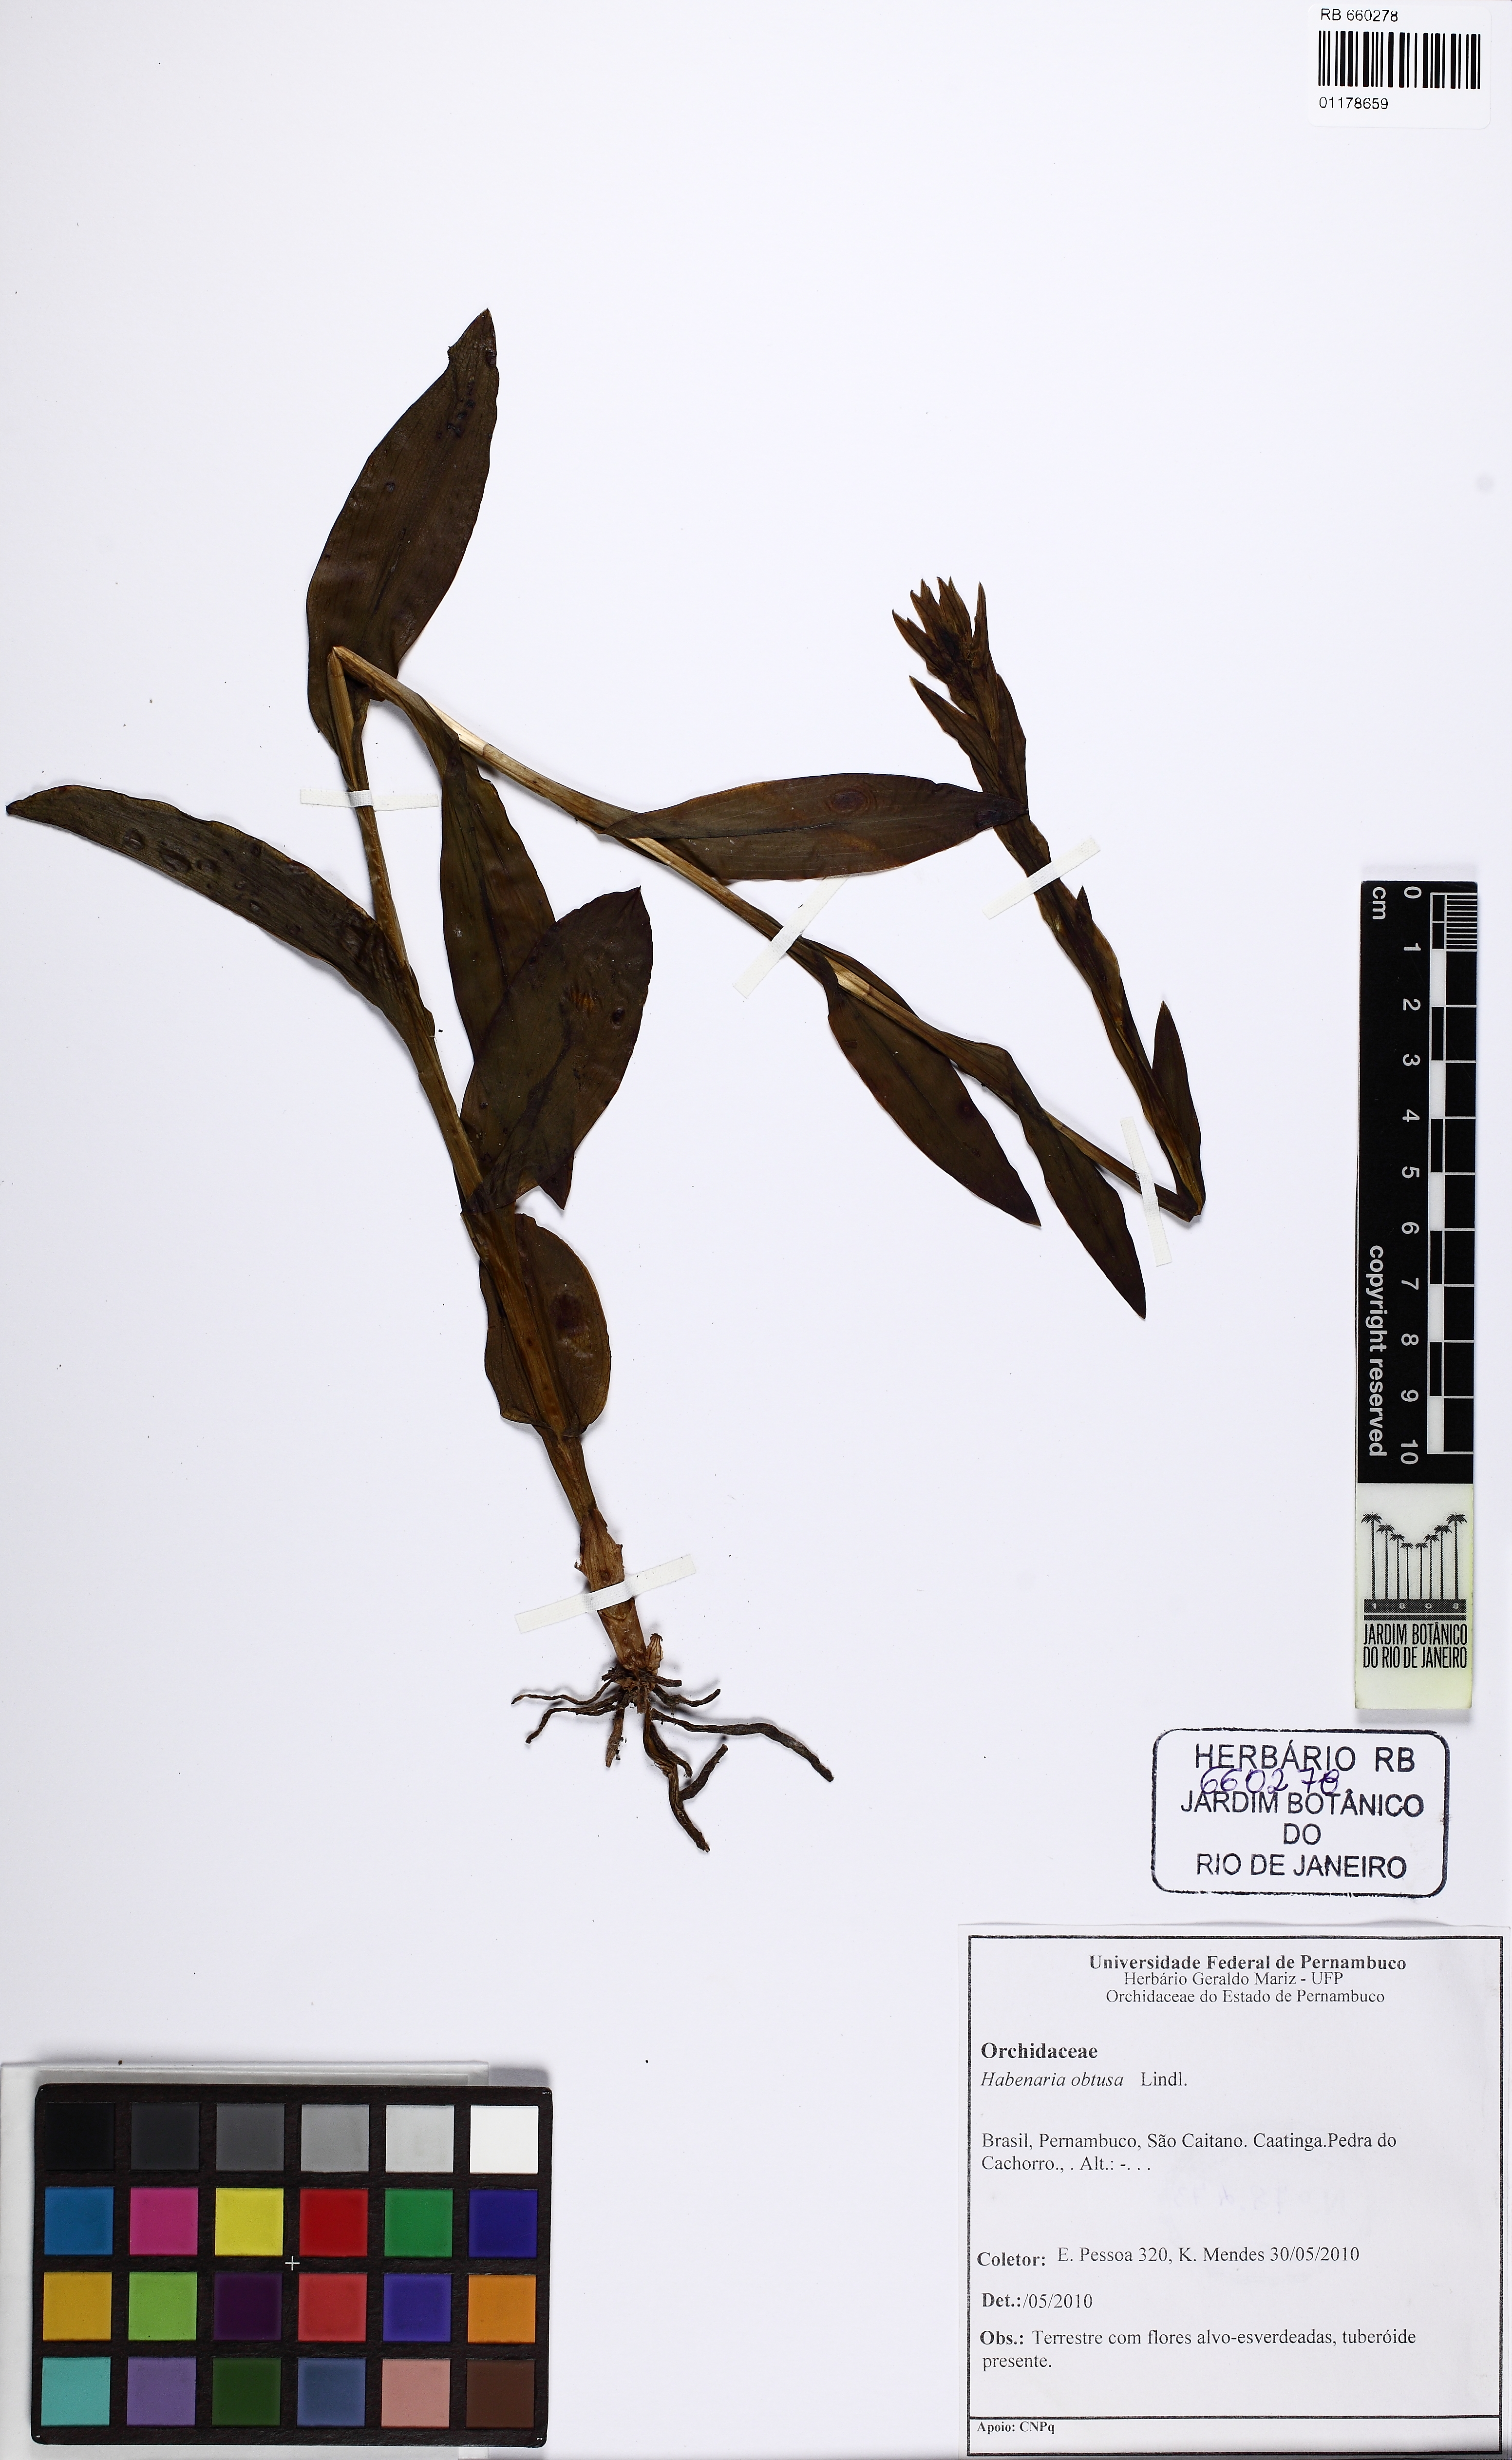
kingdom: Plantae
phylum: Tracheophyta
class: Liliopsida
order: Asparagales
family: Orchidaceae
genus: Habenaria
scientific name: Habenaria obtusa
